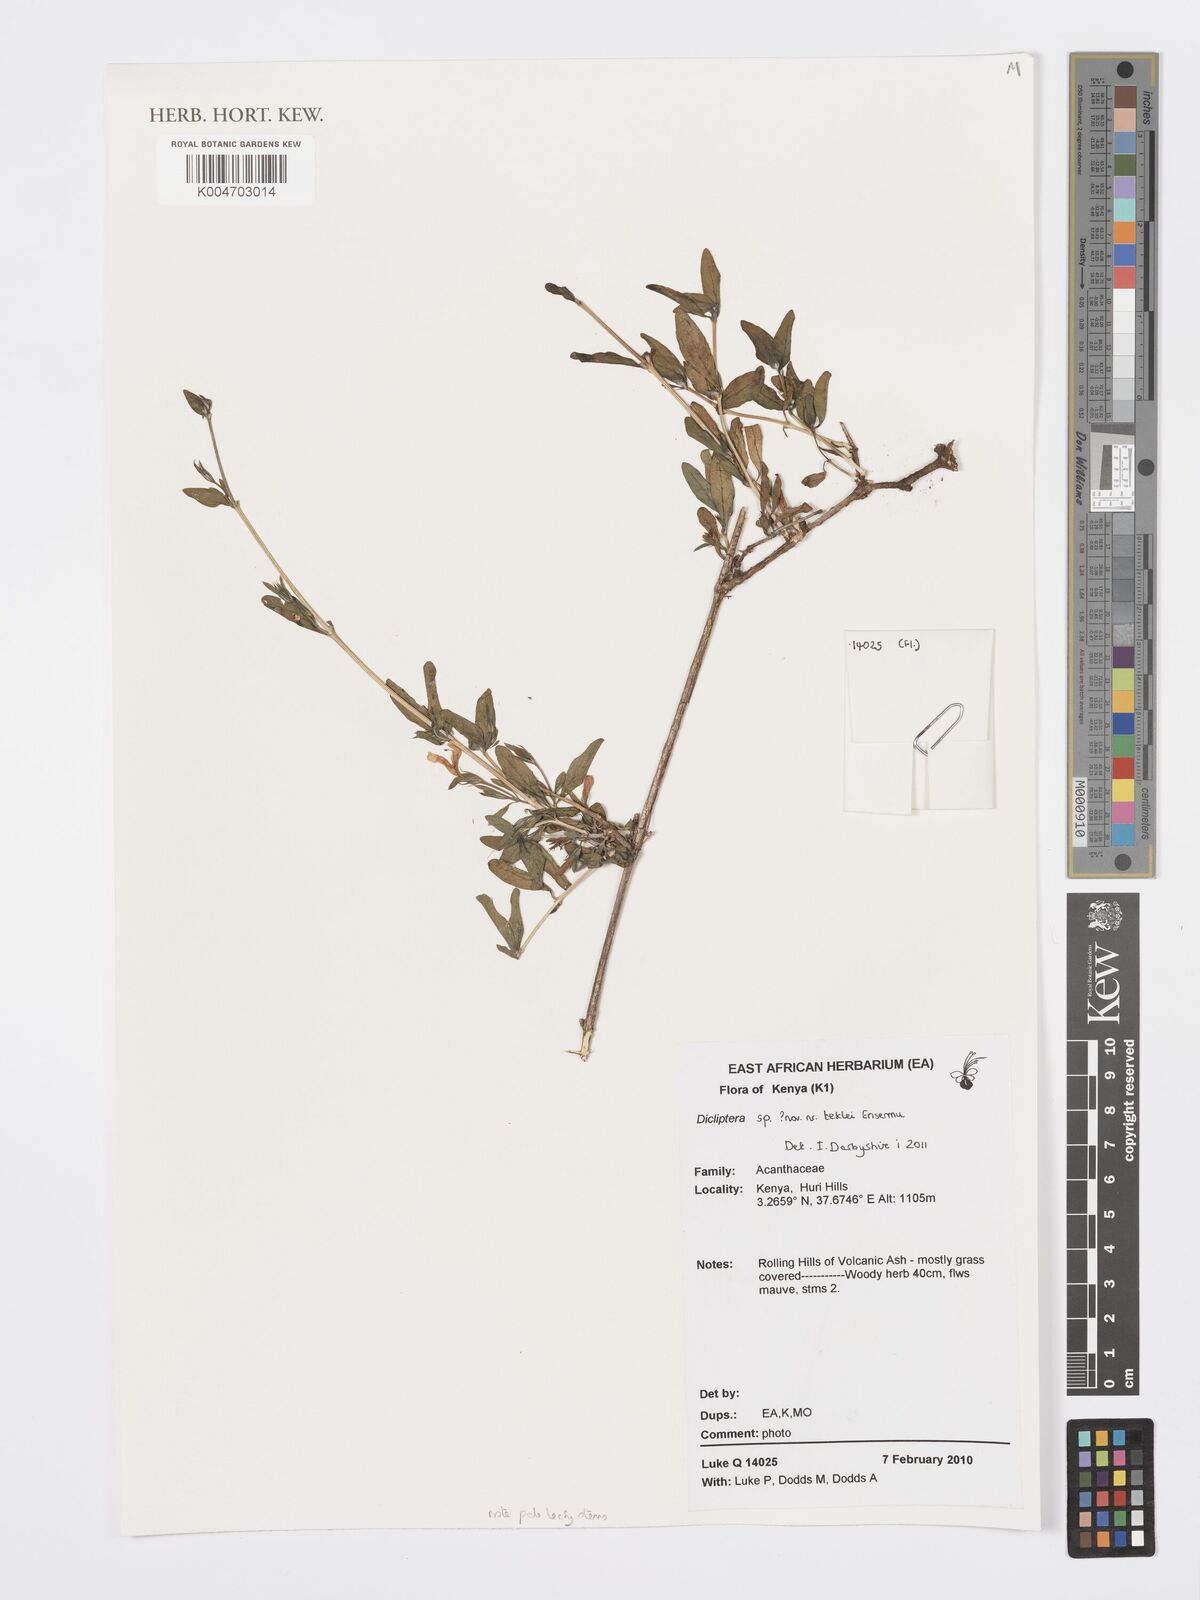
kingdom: Plantae
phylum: Tracheophyta
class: Magnoliopsida
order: Lamiales
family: Acanthaceae
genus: Dicliptera
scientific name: Dicliptera
